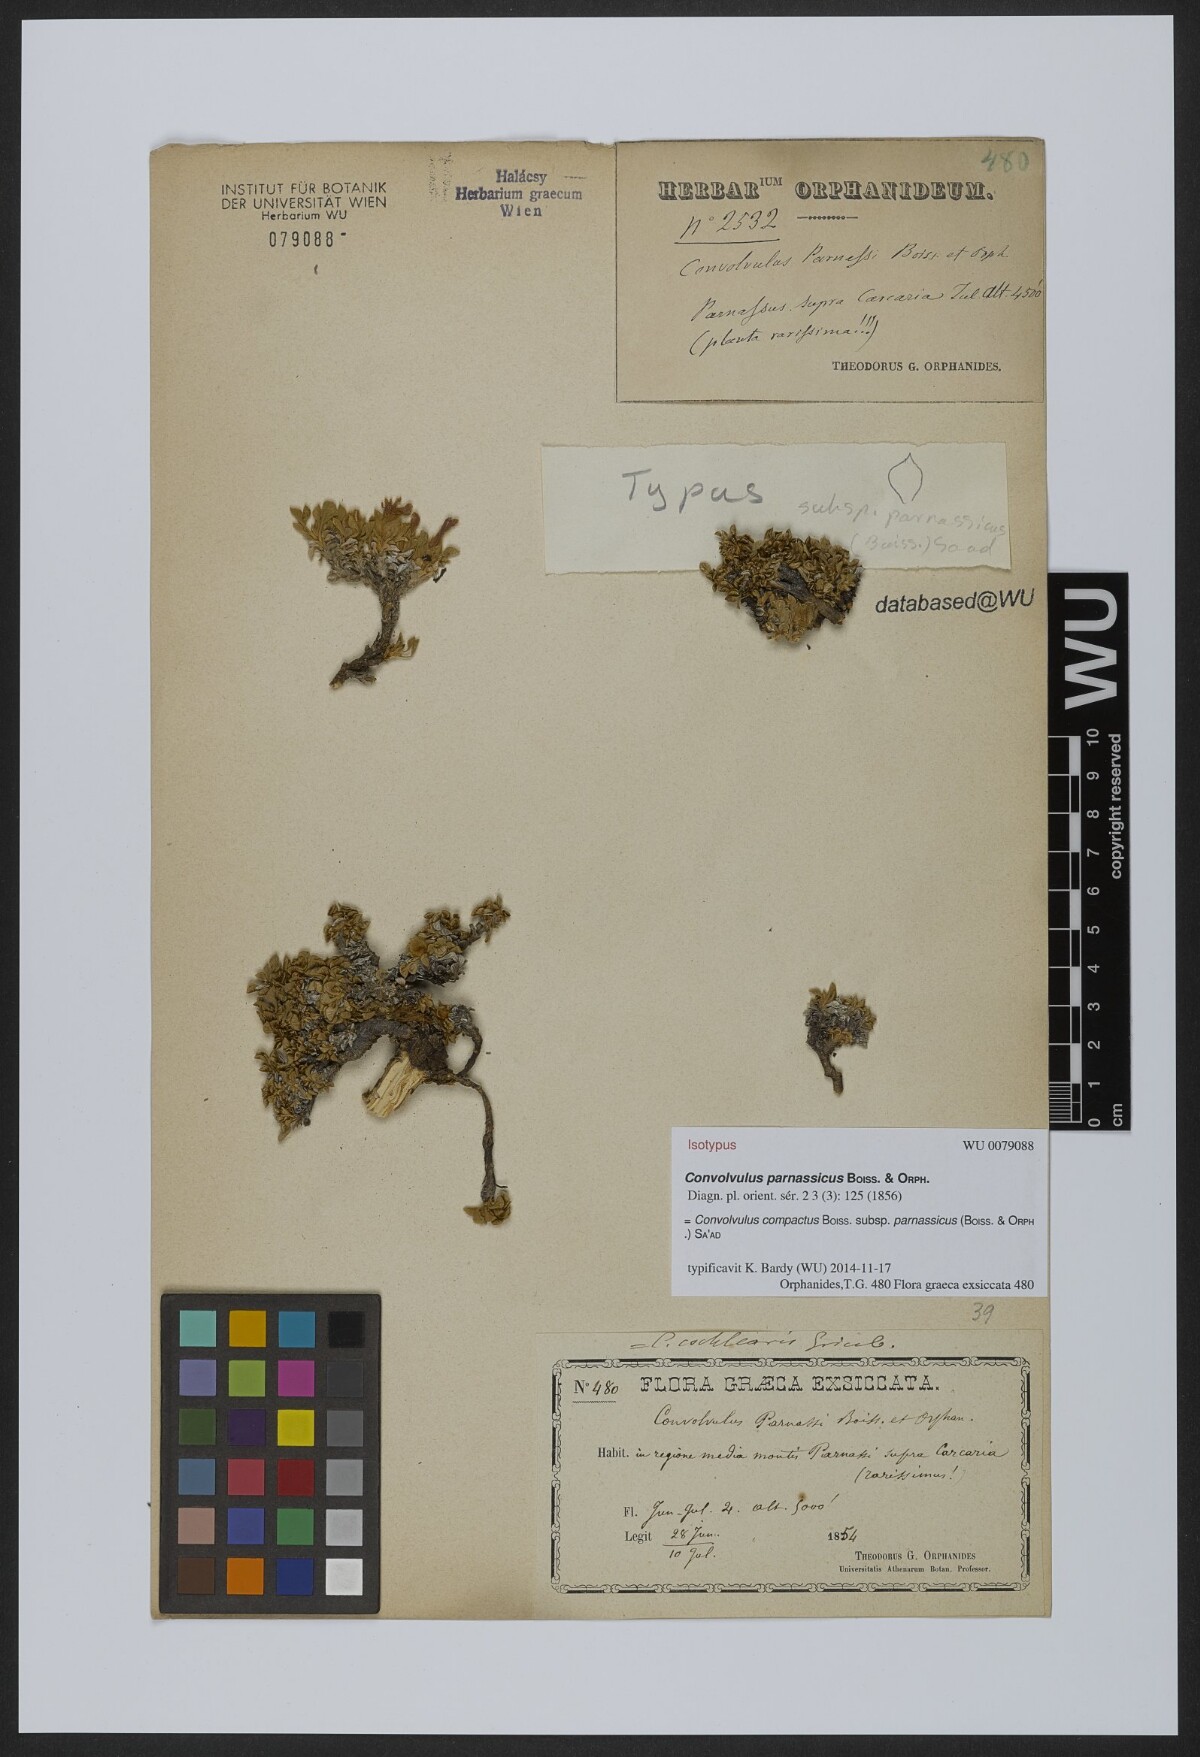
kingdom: Plantae
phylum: Tracheophyta
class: Magnoliopsida
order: Solanales
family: Convolvulaceae
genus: Convolvulus
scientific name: Convolvulus boissieri
